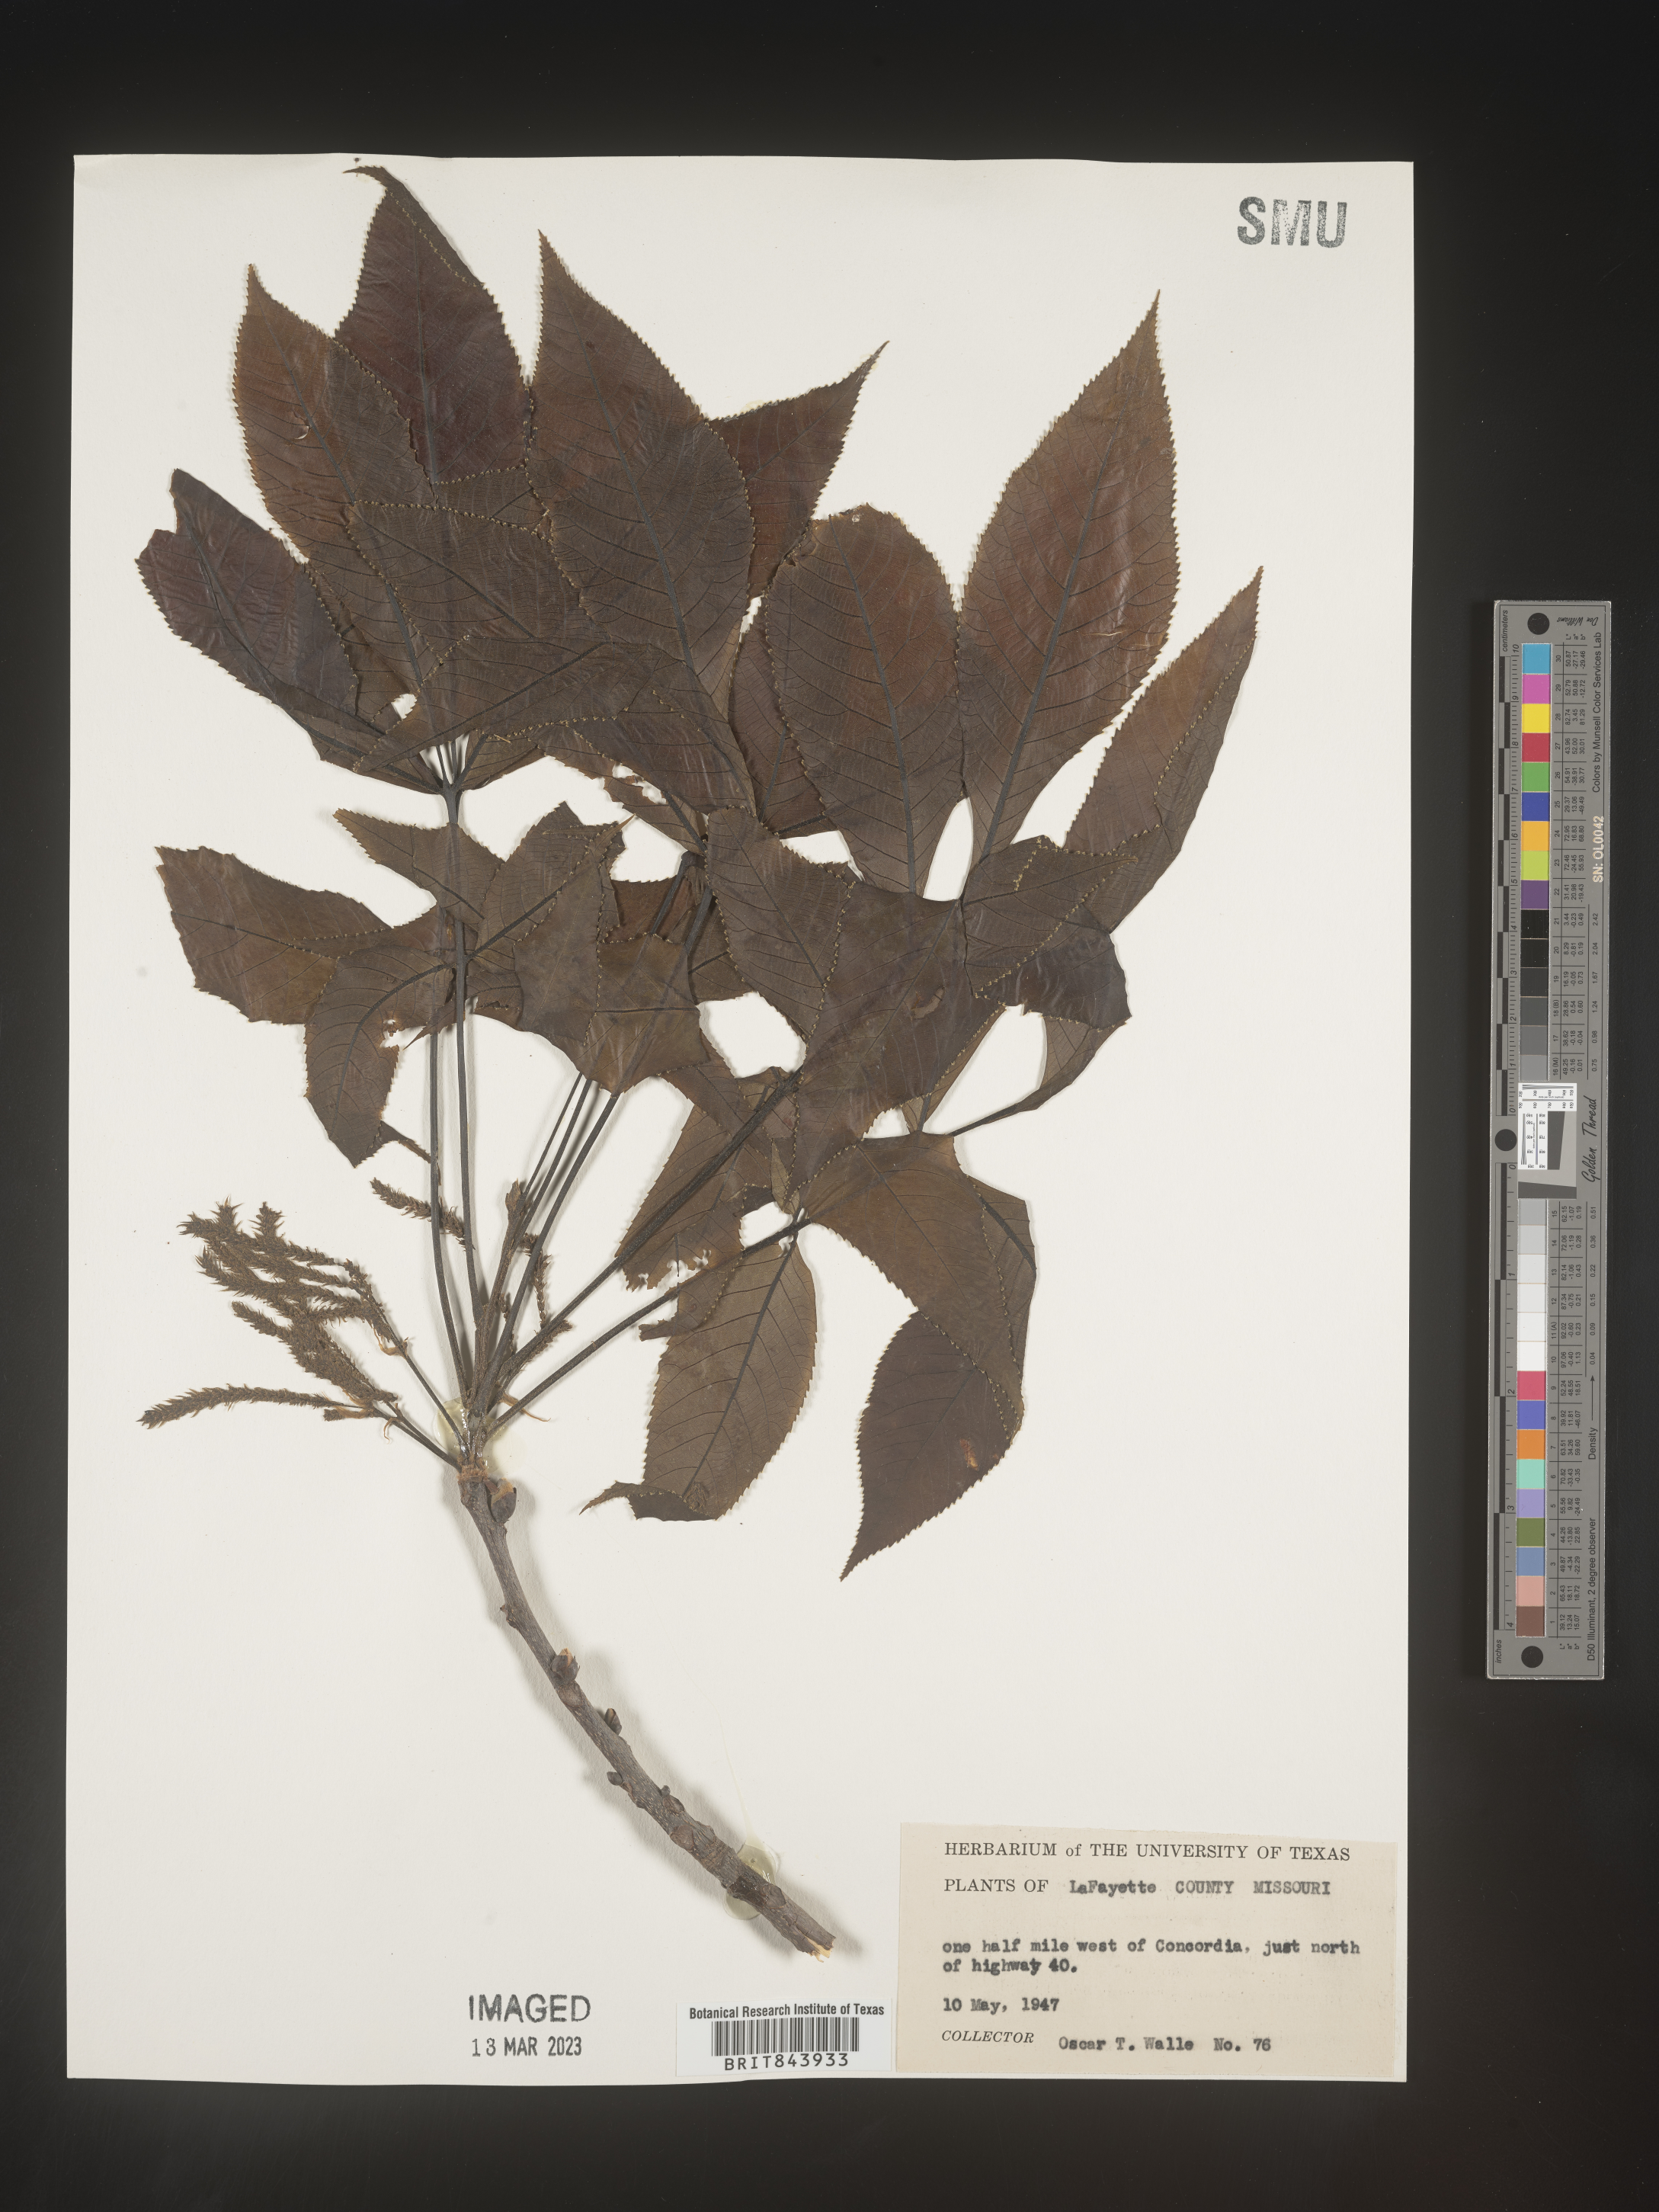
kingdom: Plantae
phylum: Tracheophyta
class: Magnoliopsida
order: Fagales
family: Juglandaceae
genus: Carya
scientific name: Carya
